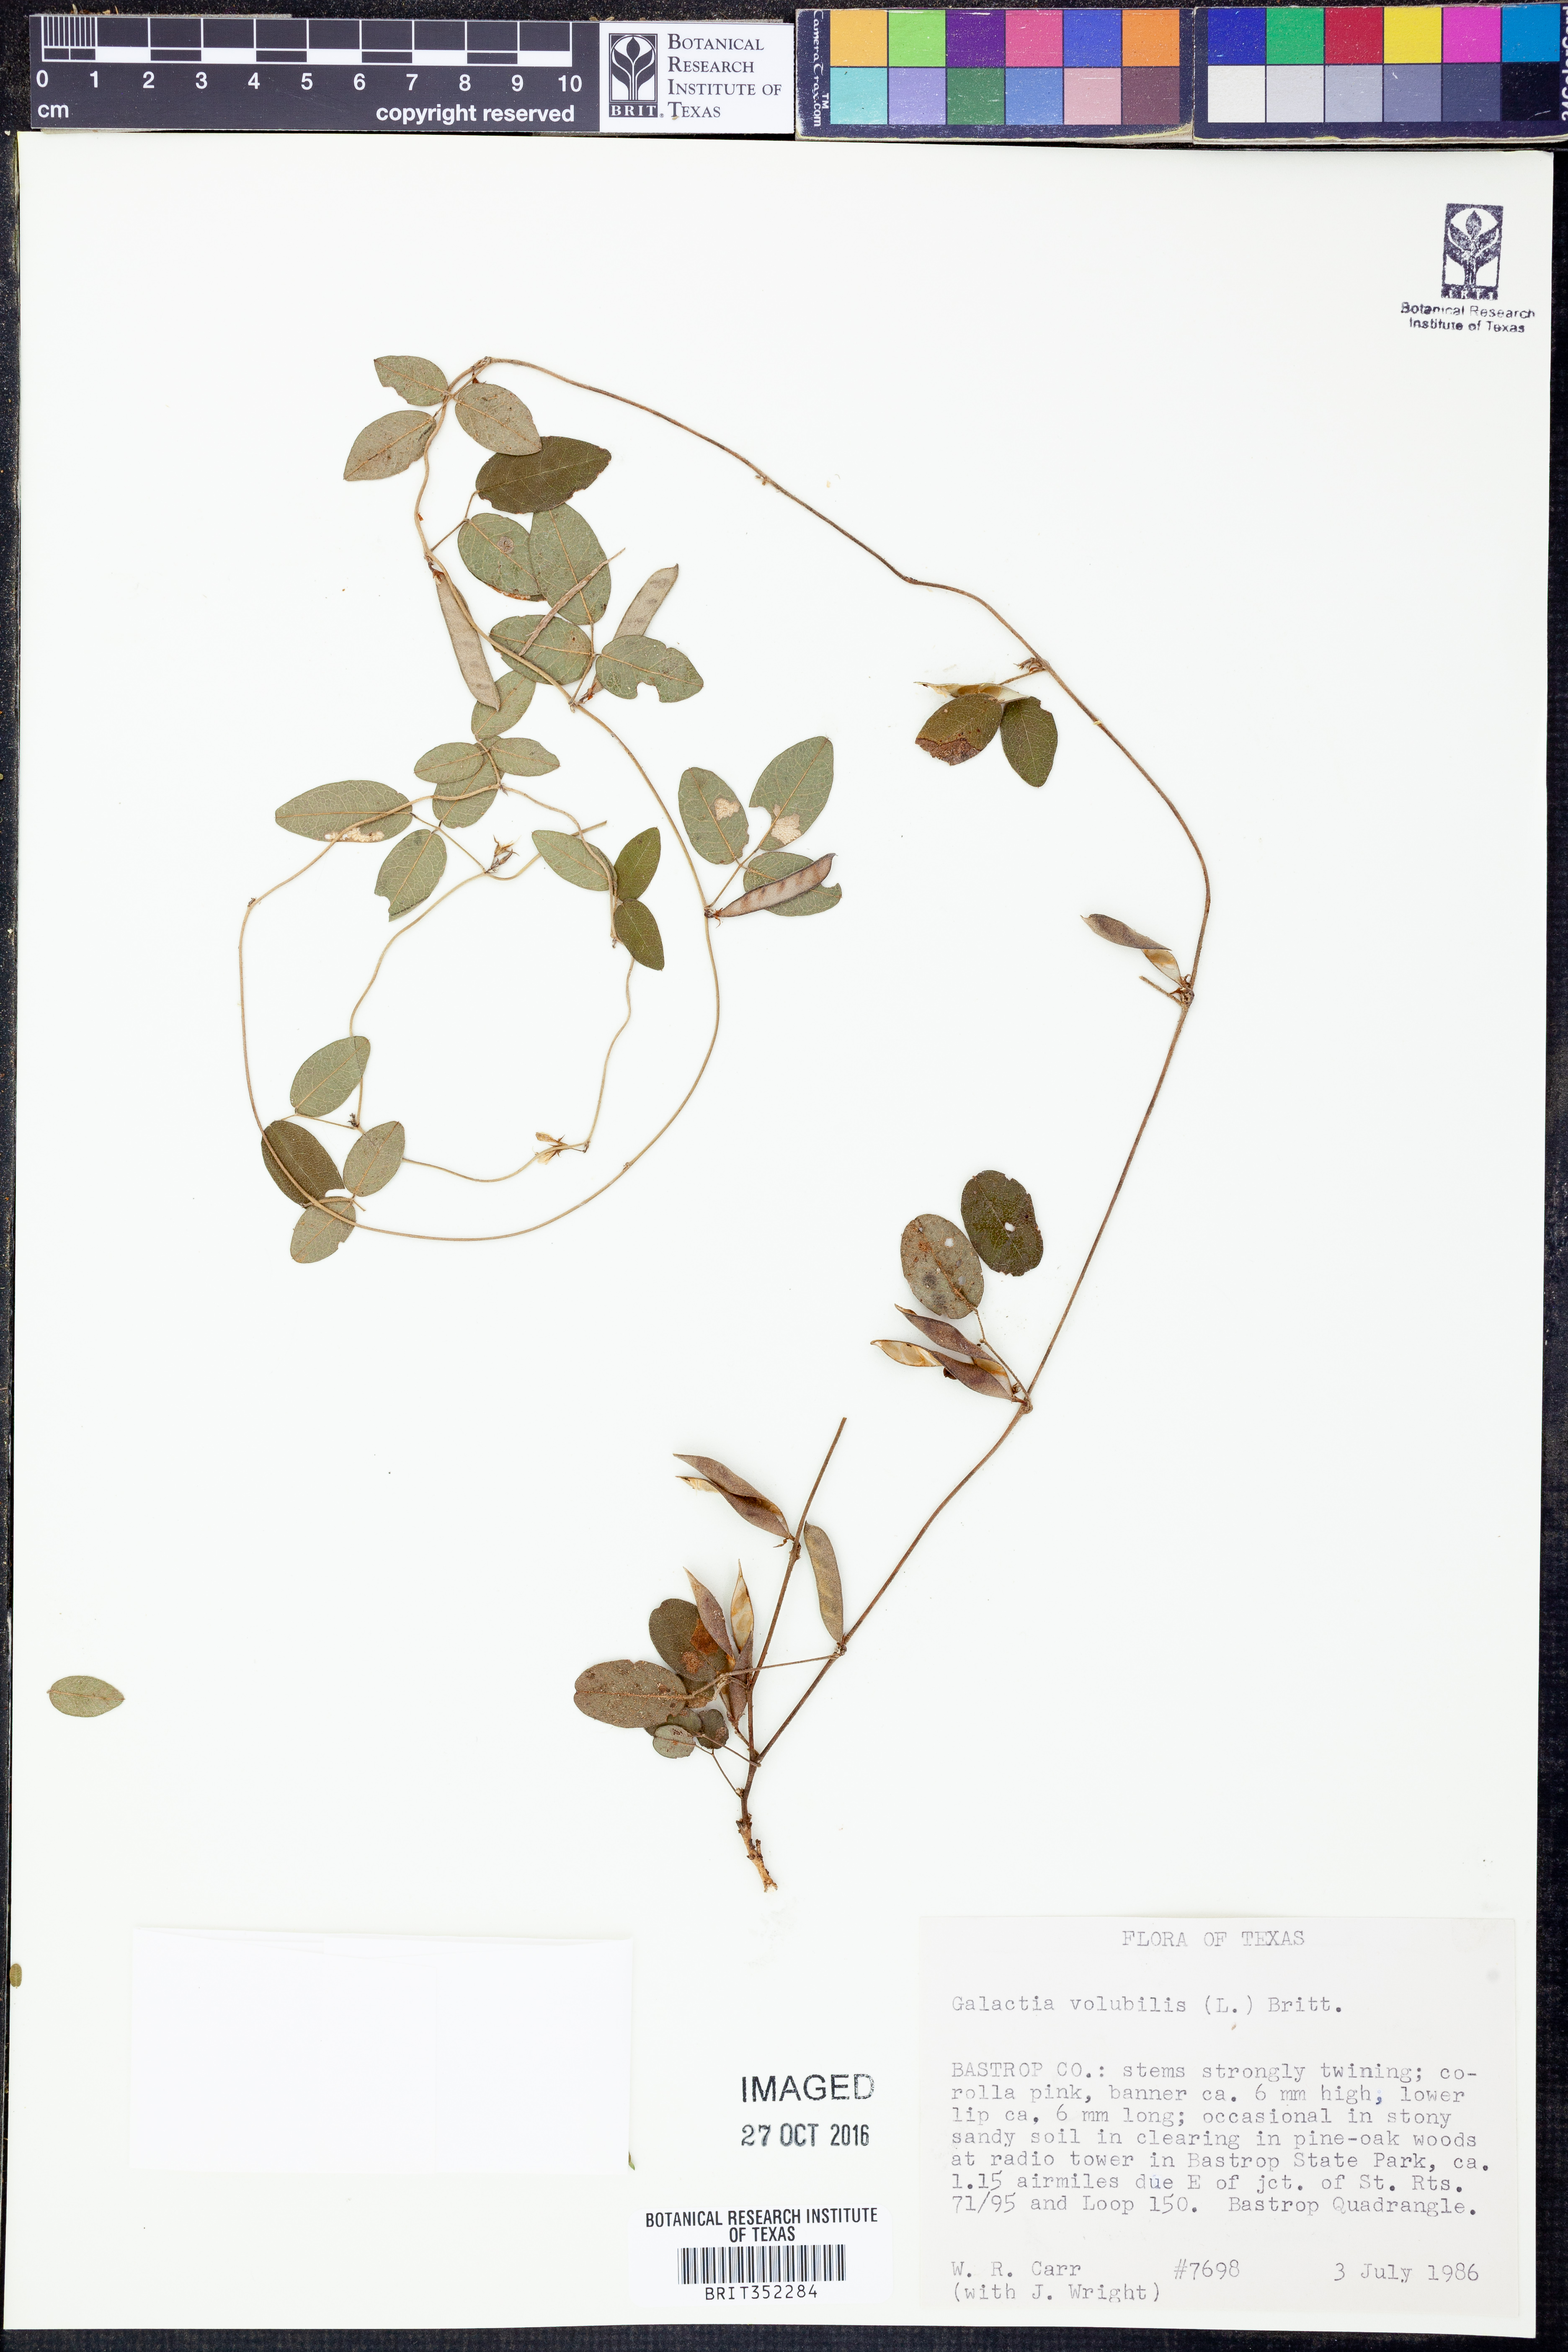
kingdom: Plantae
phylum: Tracheophyta
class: Magnoliopsida
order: Fabales
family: Fabaceae
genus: Galactia
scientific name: Galactia volubilis
